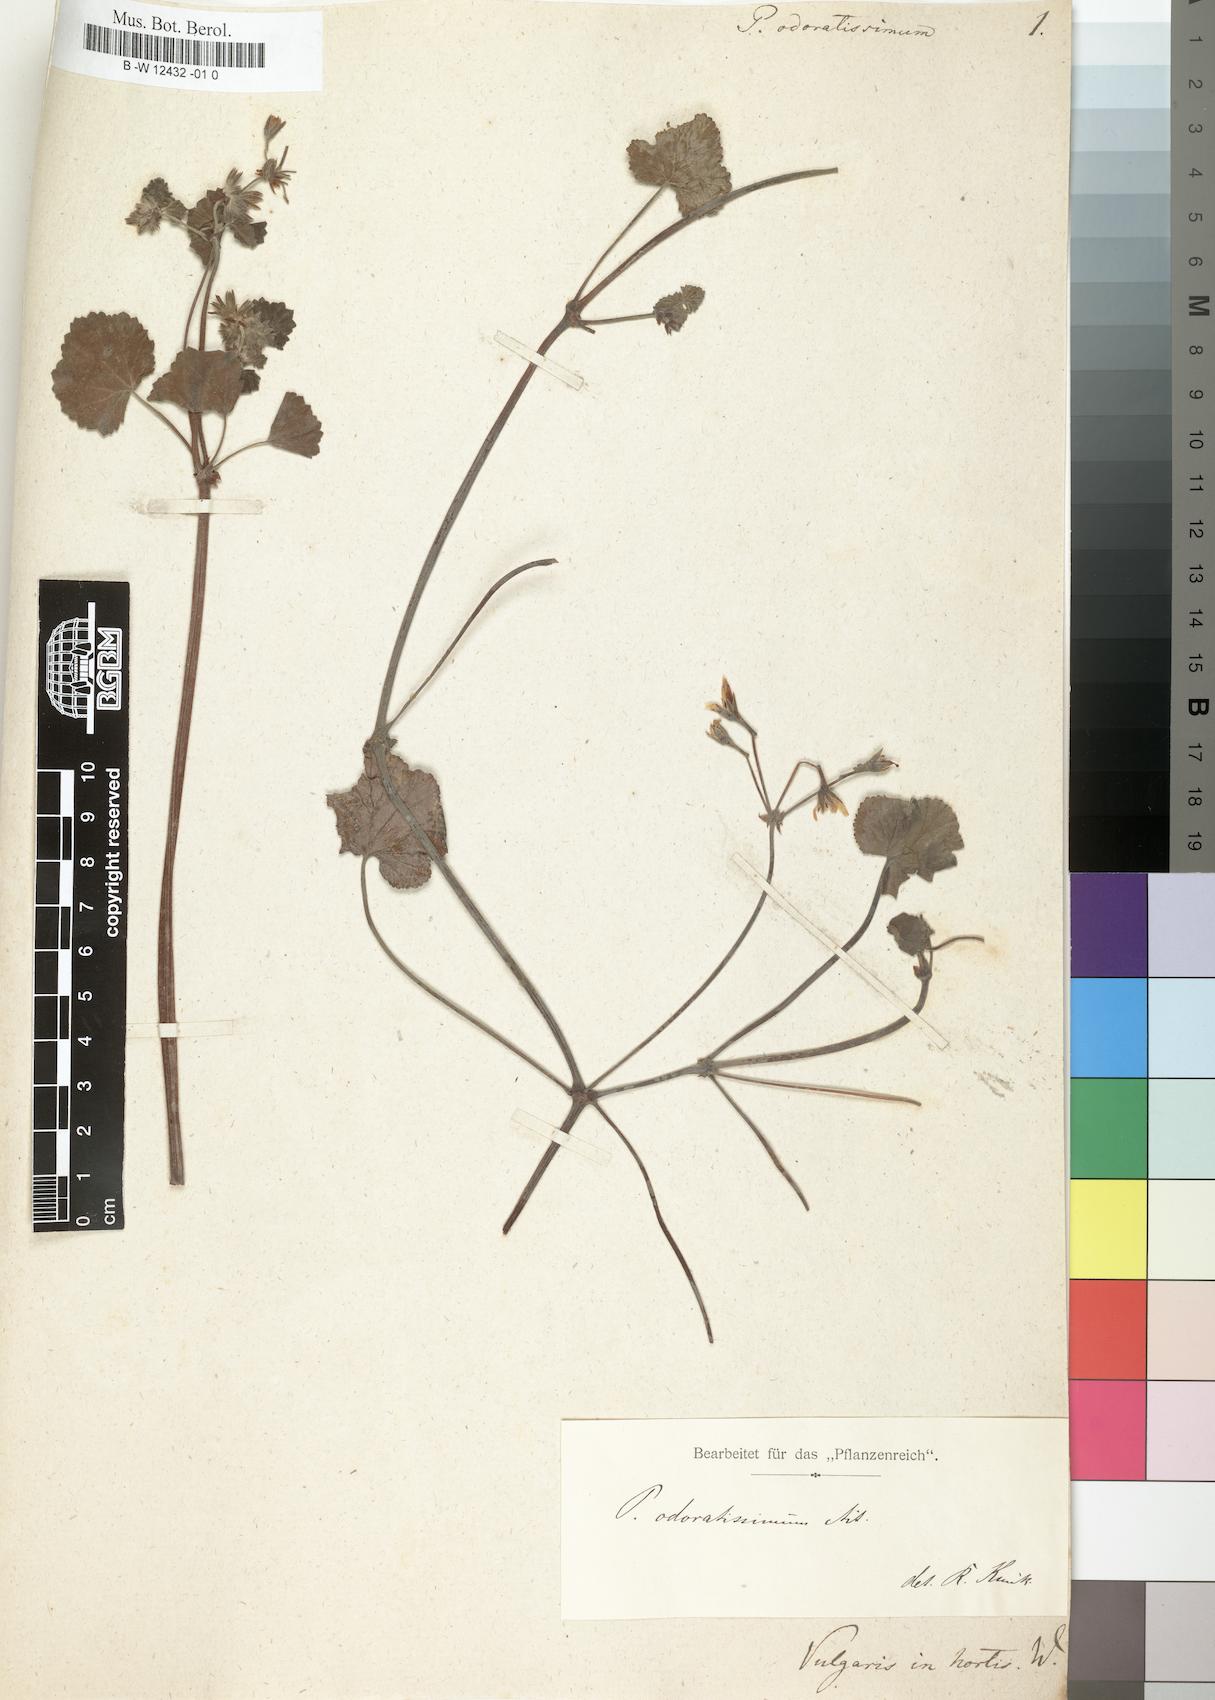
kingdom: Plantae
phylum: Tracheophyta
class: Magnoliopsida
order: Geraniales
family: Geraniaceae
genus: Pelargonium
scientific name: Pelargonium odoratissimum
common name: Apple geranium
